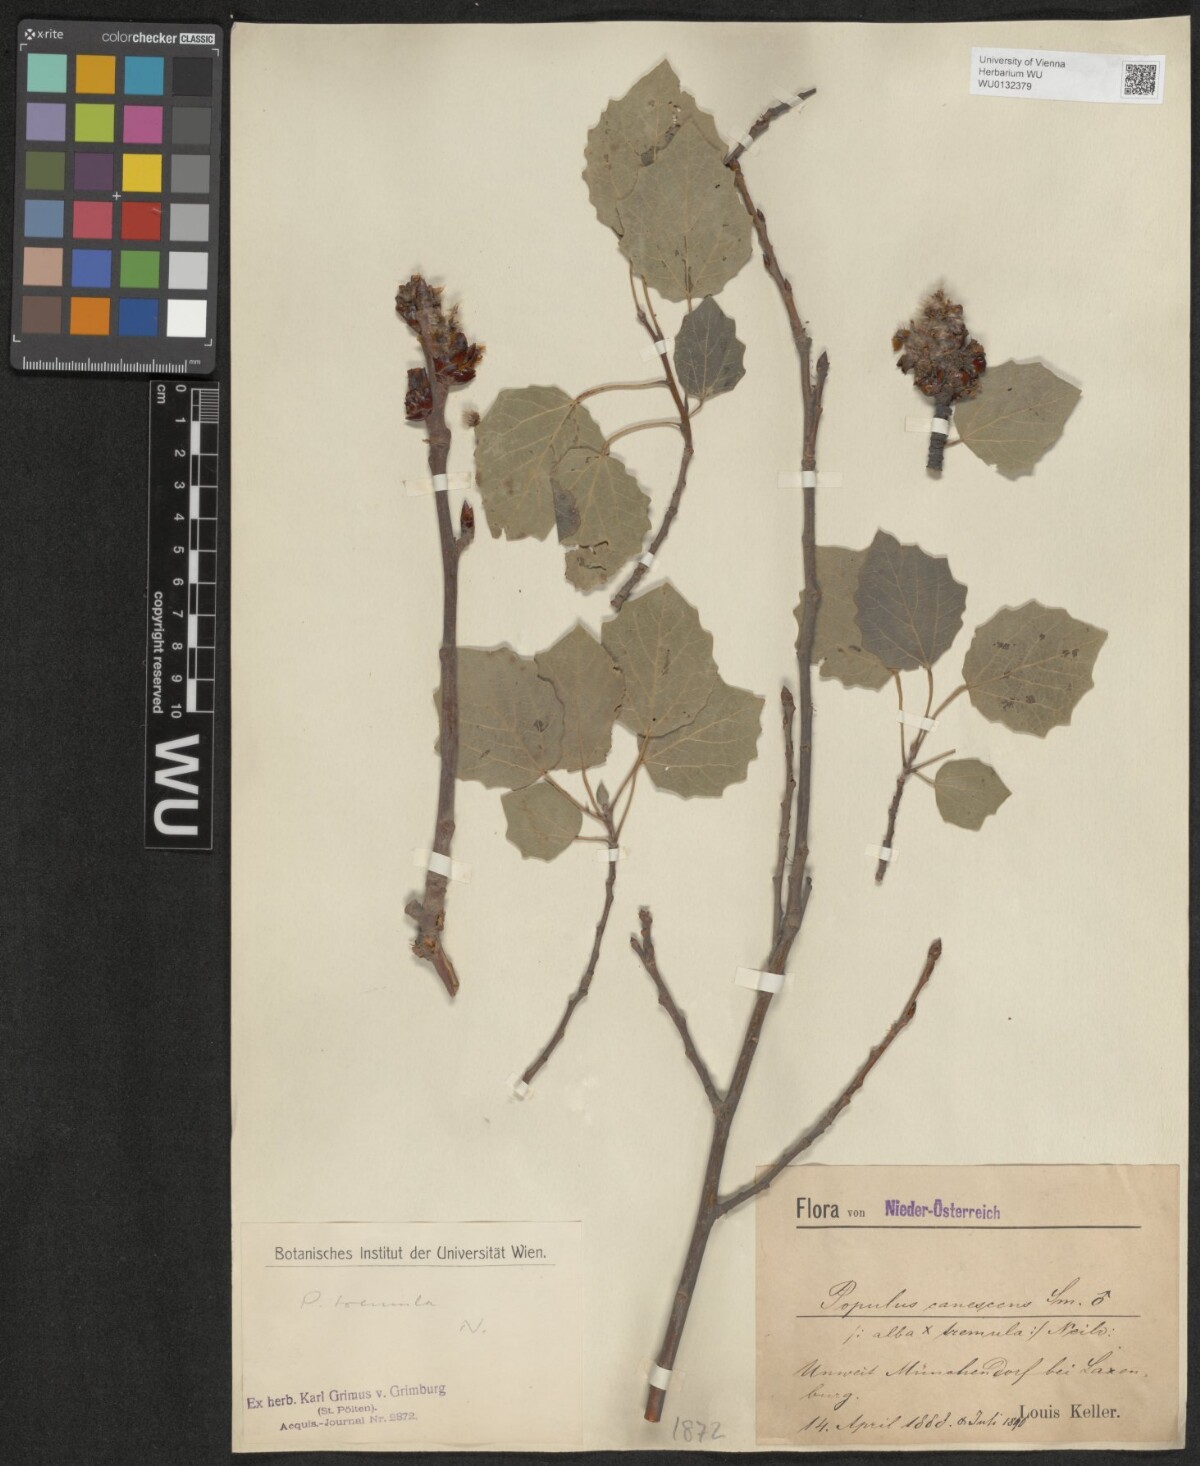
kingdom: Plantae
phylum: Tracheophyta
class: Magnoliopsida
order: Malpighiales
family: Salicaceae
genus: Populus
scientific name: Populus tremula
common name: European aspen
